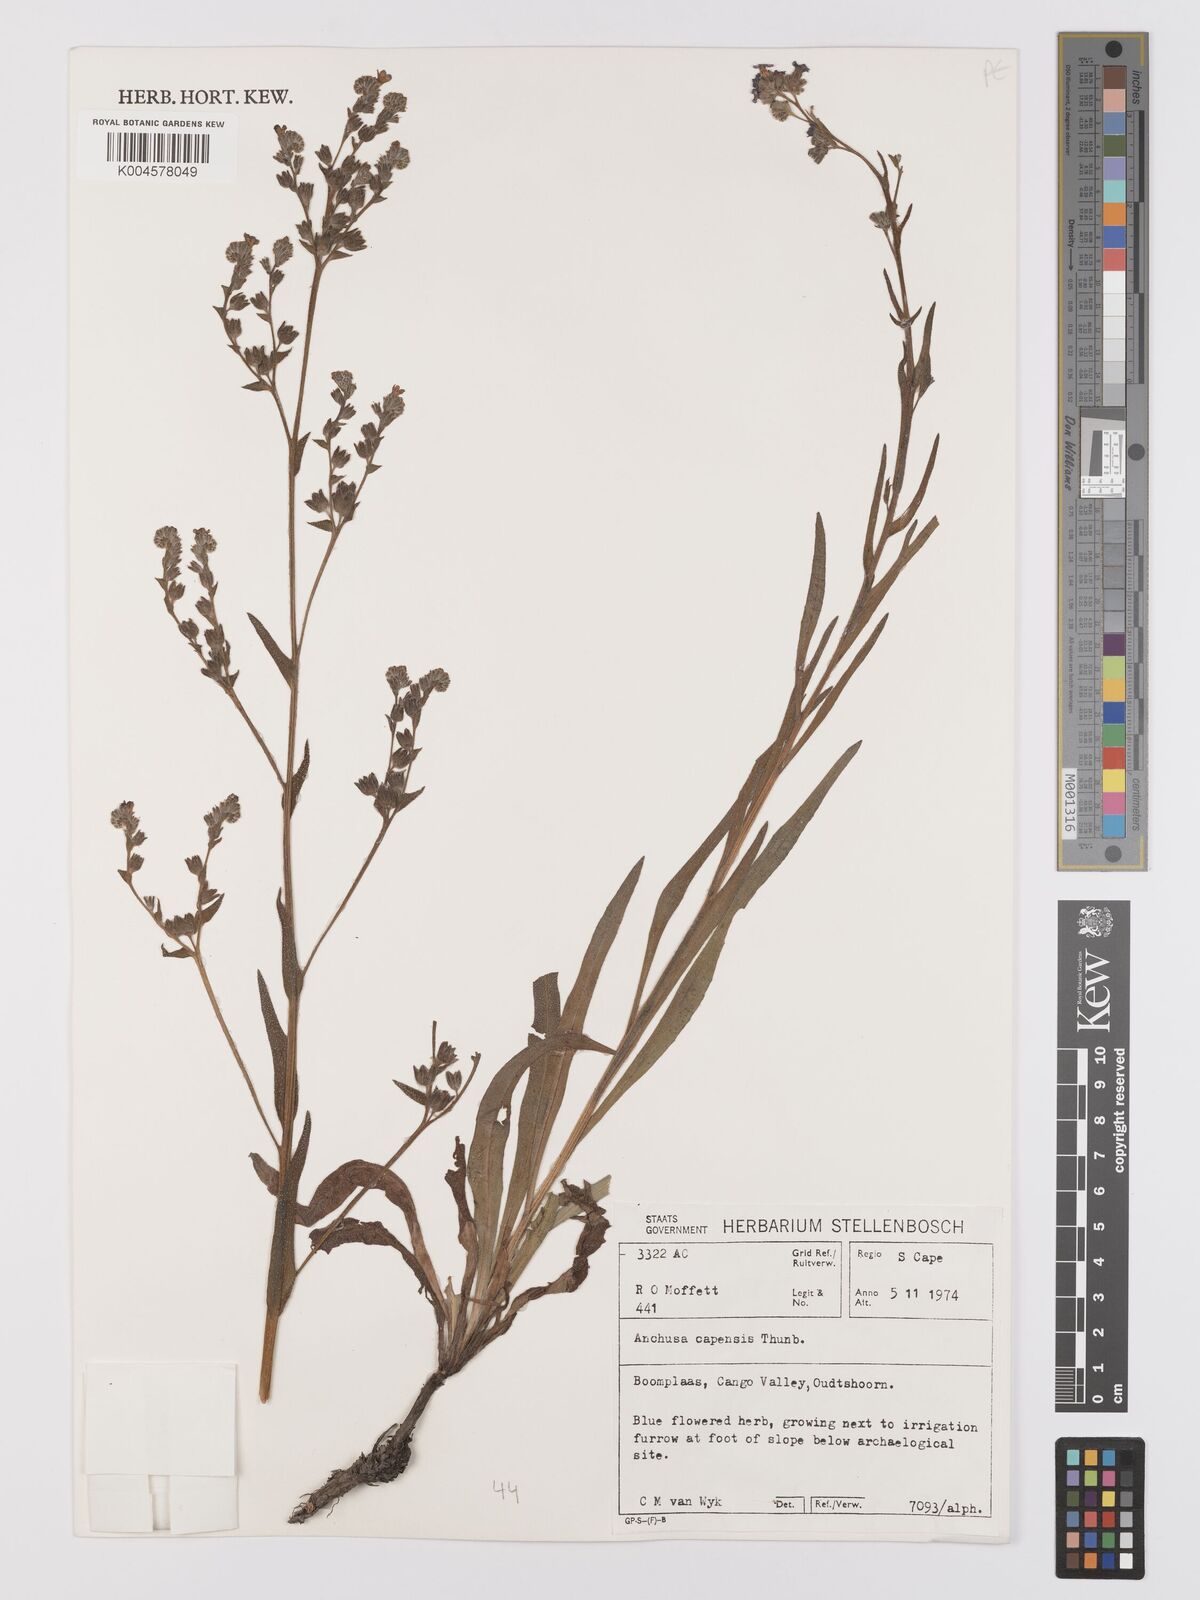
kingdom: Plantae
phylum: Tracheophyta
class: Magnoliopsida
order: Boraginales
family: Boraginaceae
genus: Anchusa
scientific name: Anchusa capensis
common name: Cape bugloss
